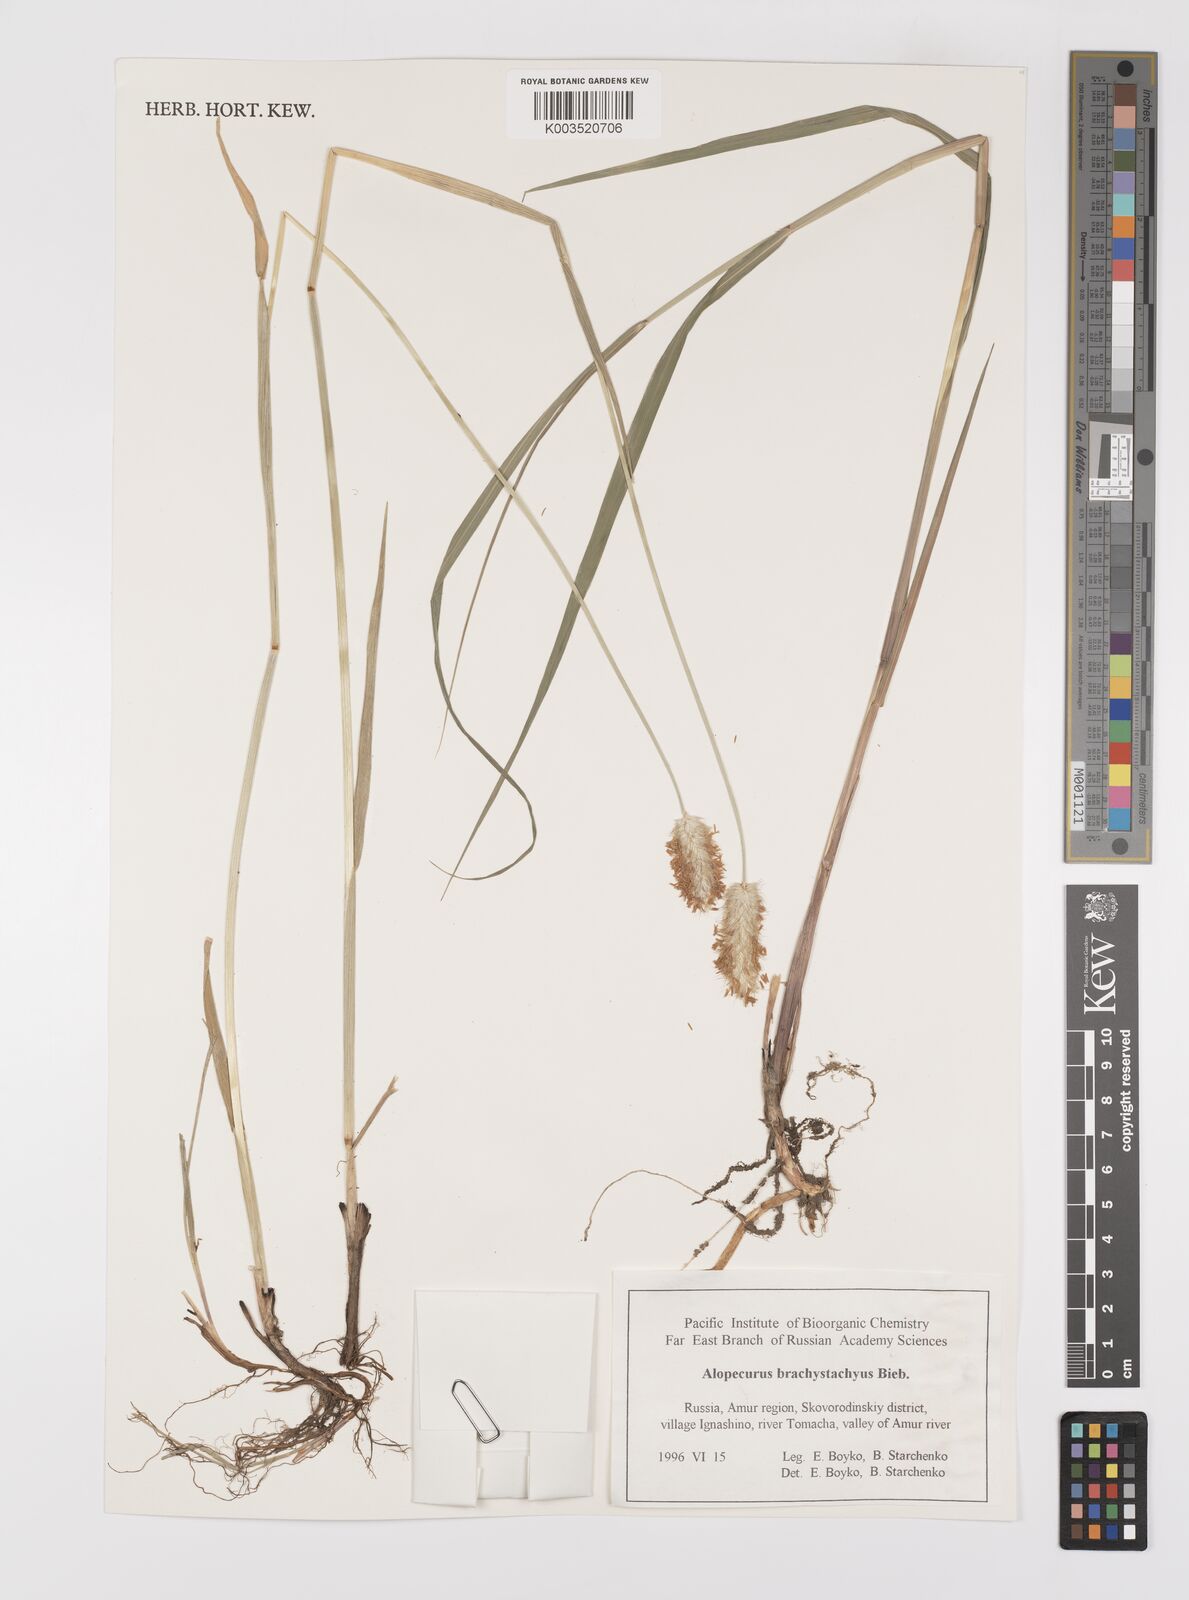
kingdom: Plantae
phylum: Tracheophyta
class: Liliopsida
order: Poales
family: Poaceae
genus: Alopecurus
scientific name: Alopecurus brachystachyus
